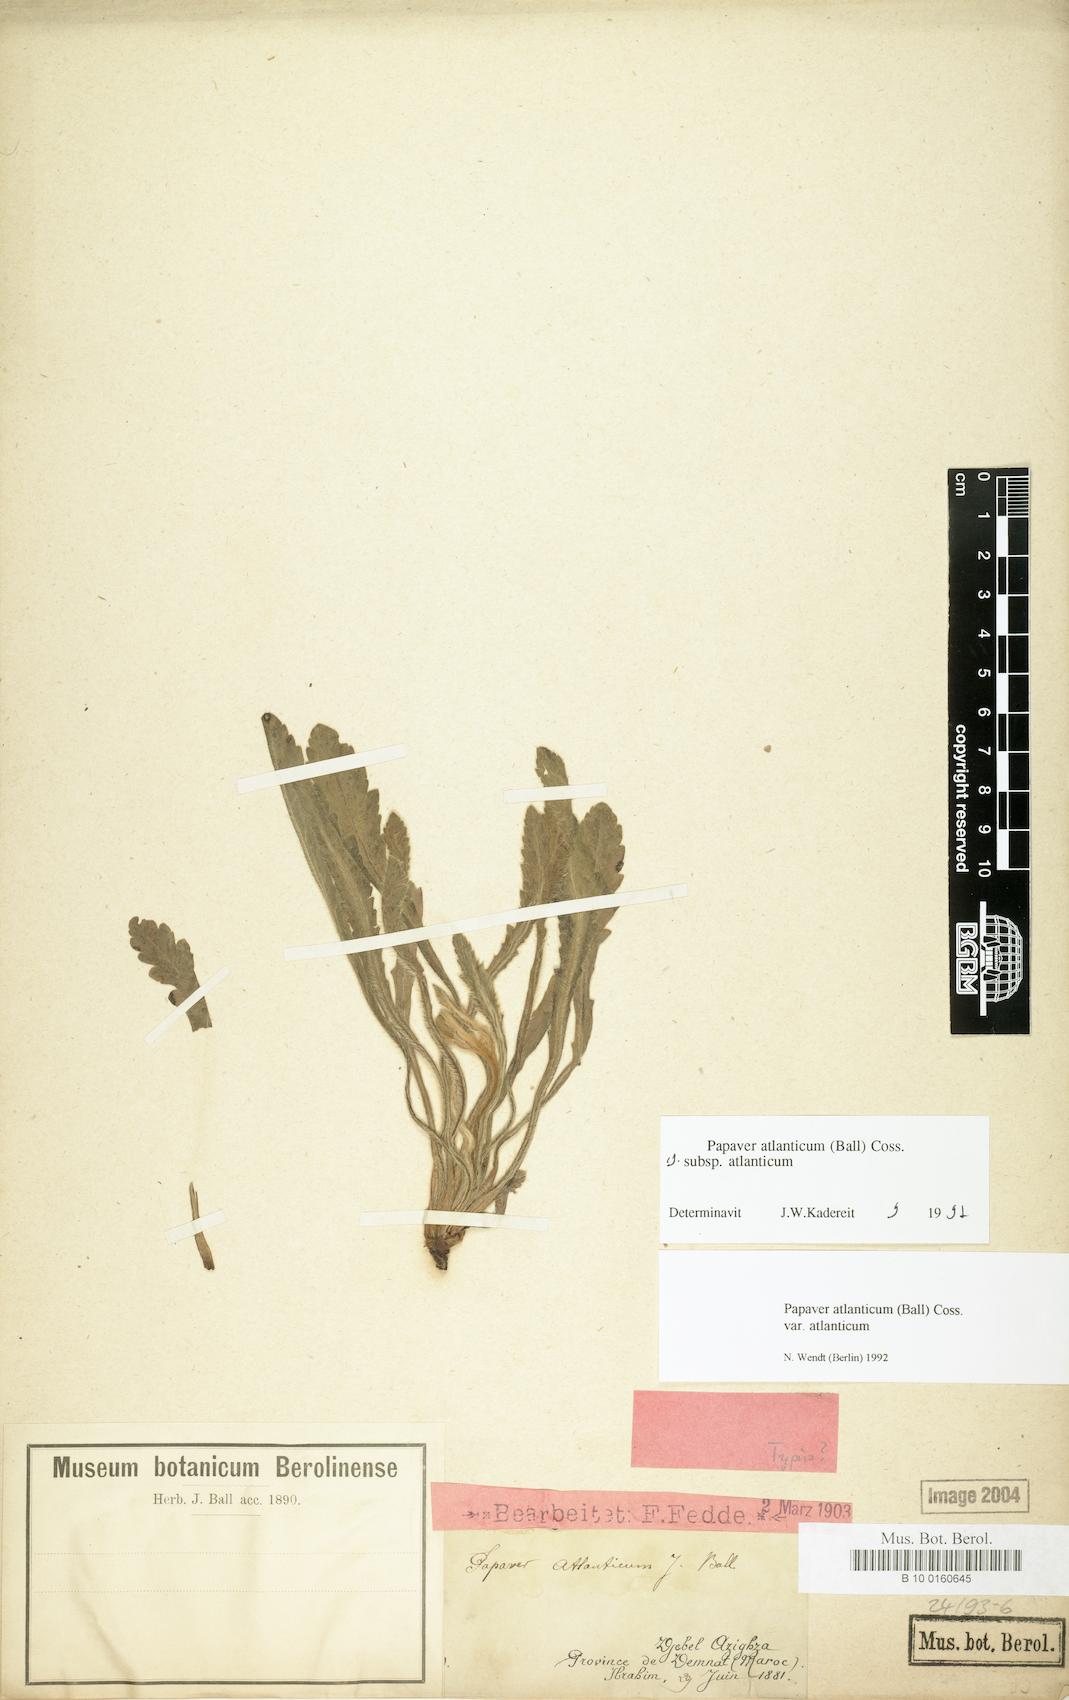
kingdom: Plantae
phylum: Tracheophyta
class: Magnoliopsida
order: Ranunculales
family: Papaveraceae
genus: Papaver
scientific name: Papaver atlanticum
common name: Atlas poppy
